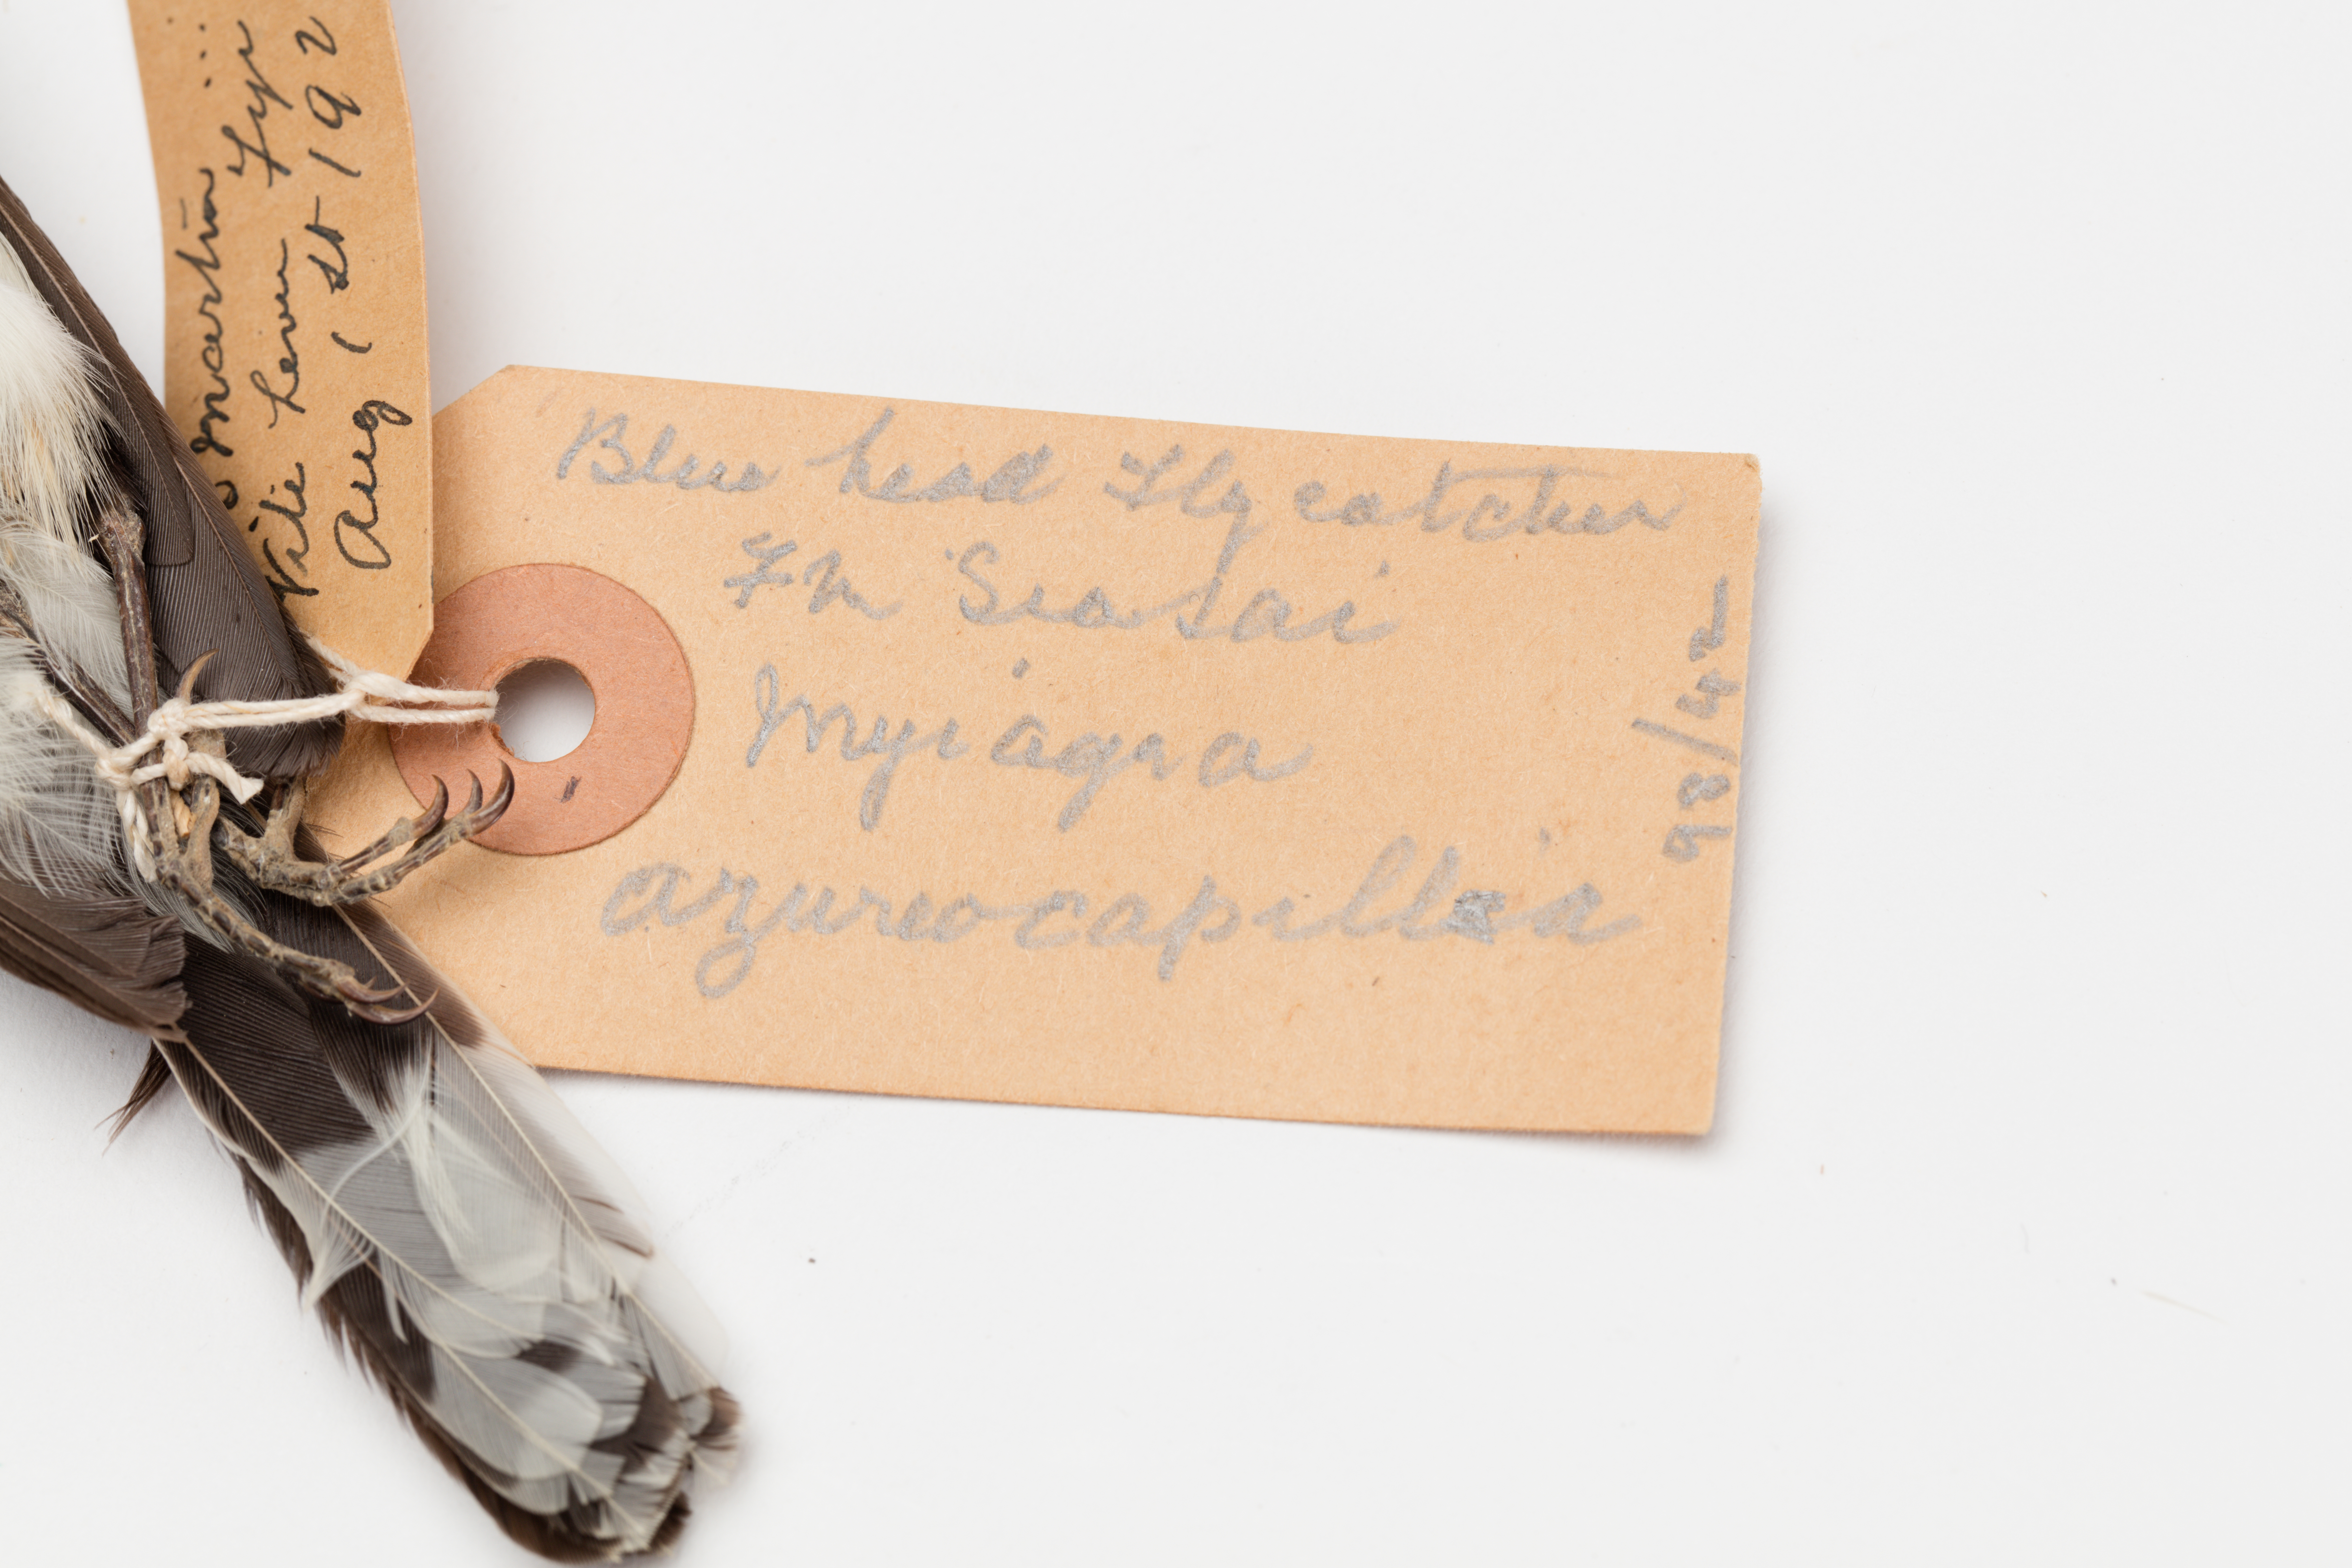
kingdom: Animalia
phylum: Chordata
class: Aves
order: Passeriformes
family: Monarchidae
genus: Myiagra
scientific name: Myiagra azureocapilla
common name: Azure-crested flycatcher
